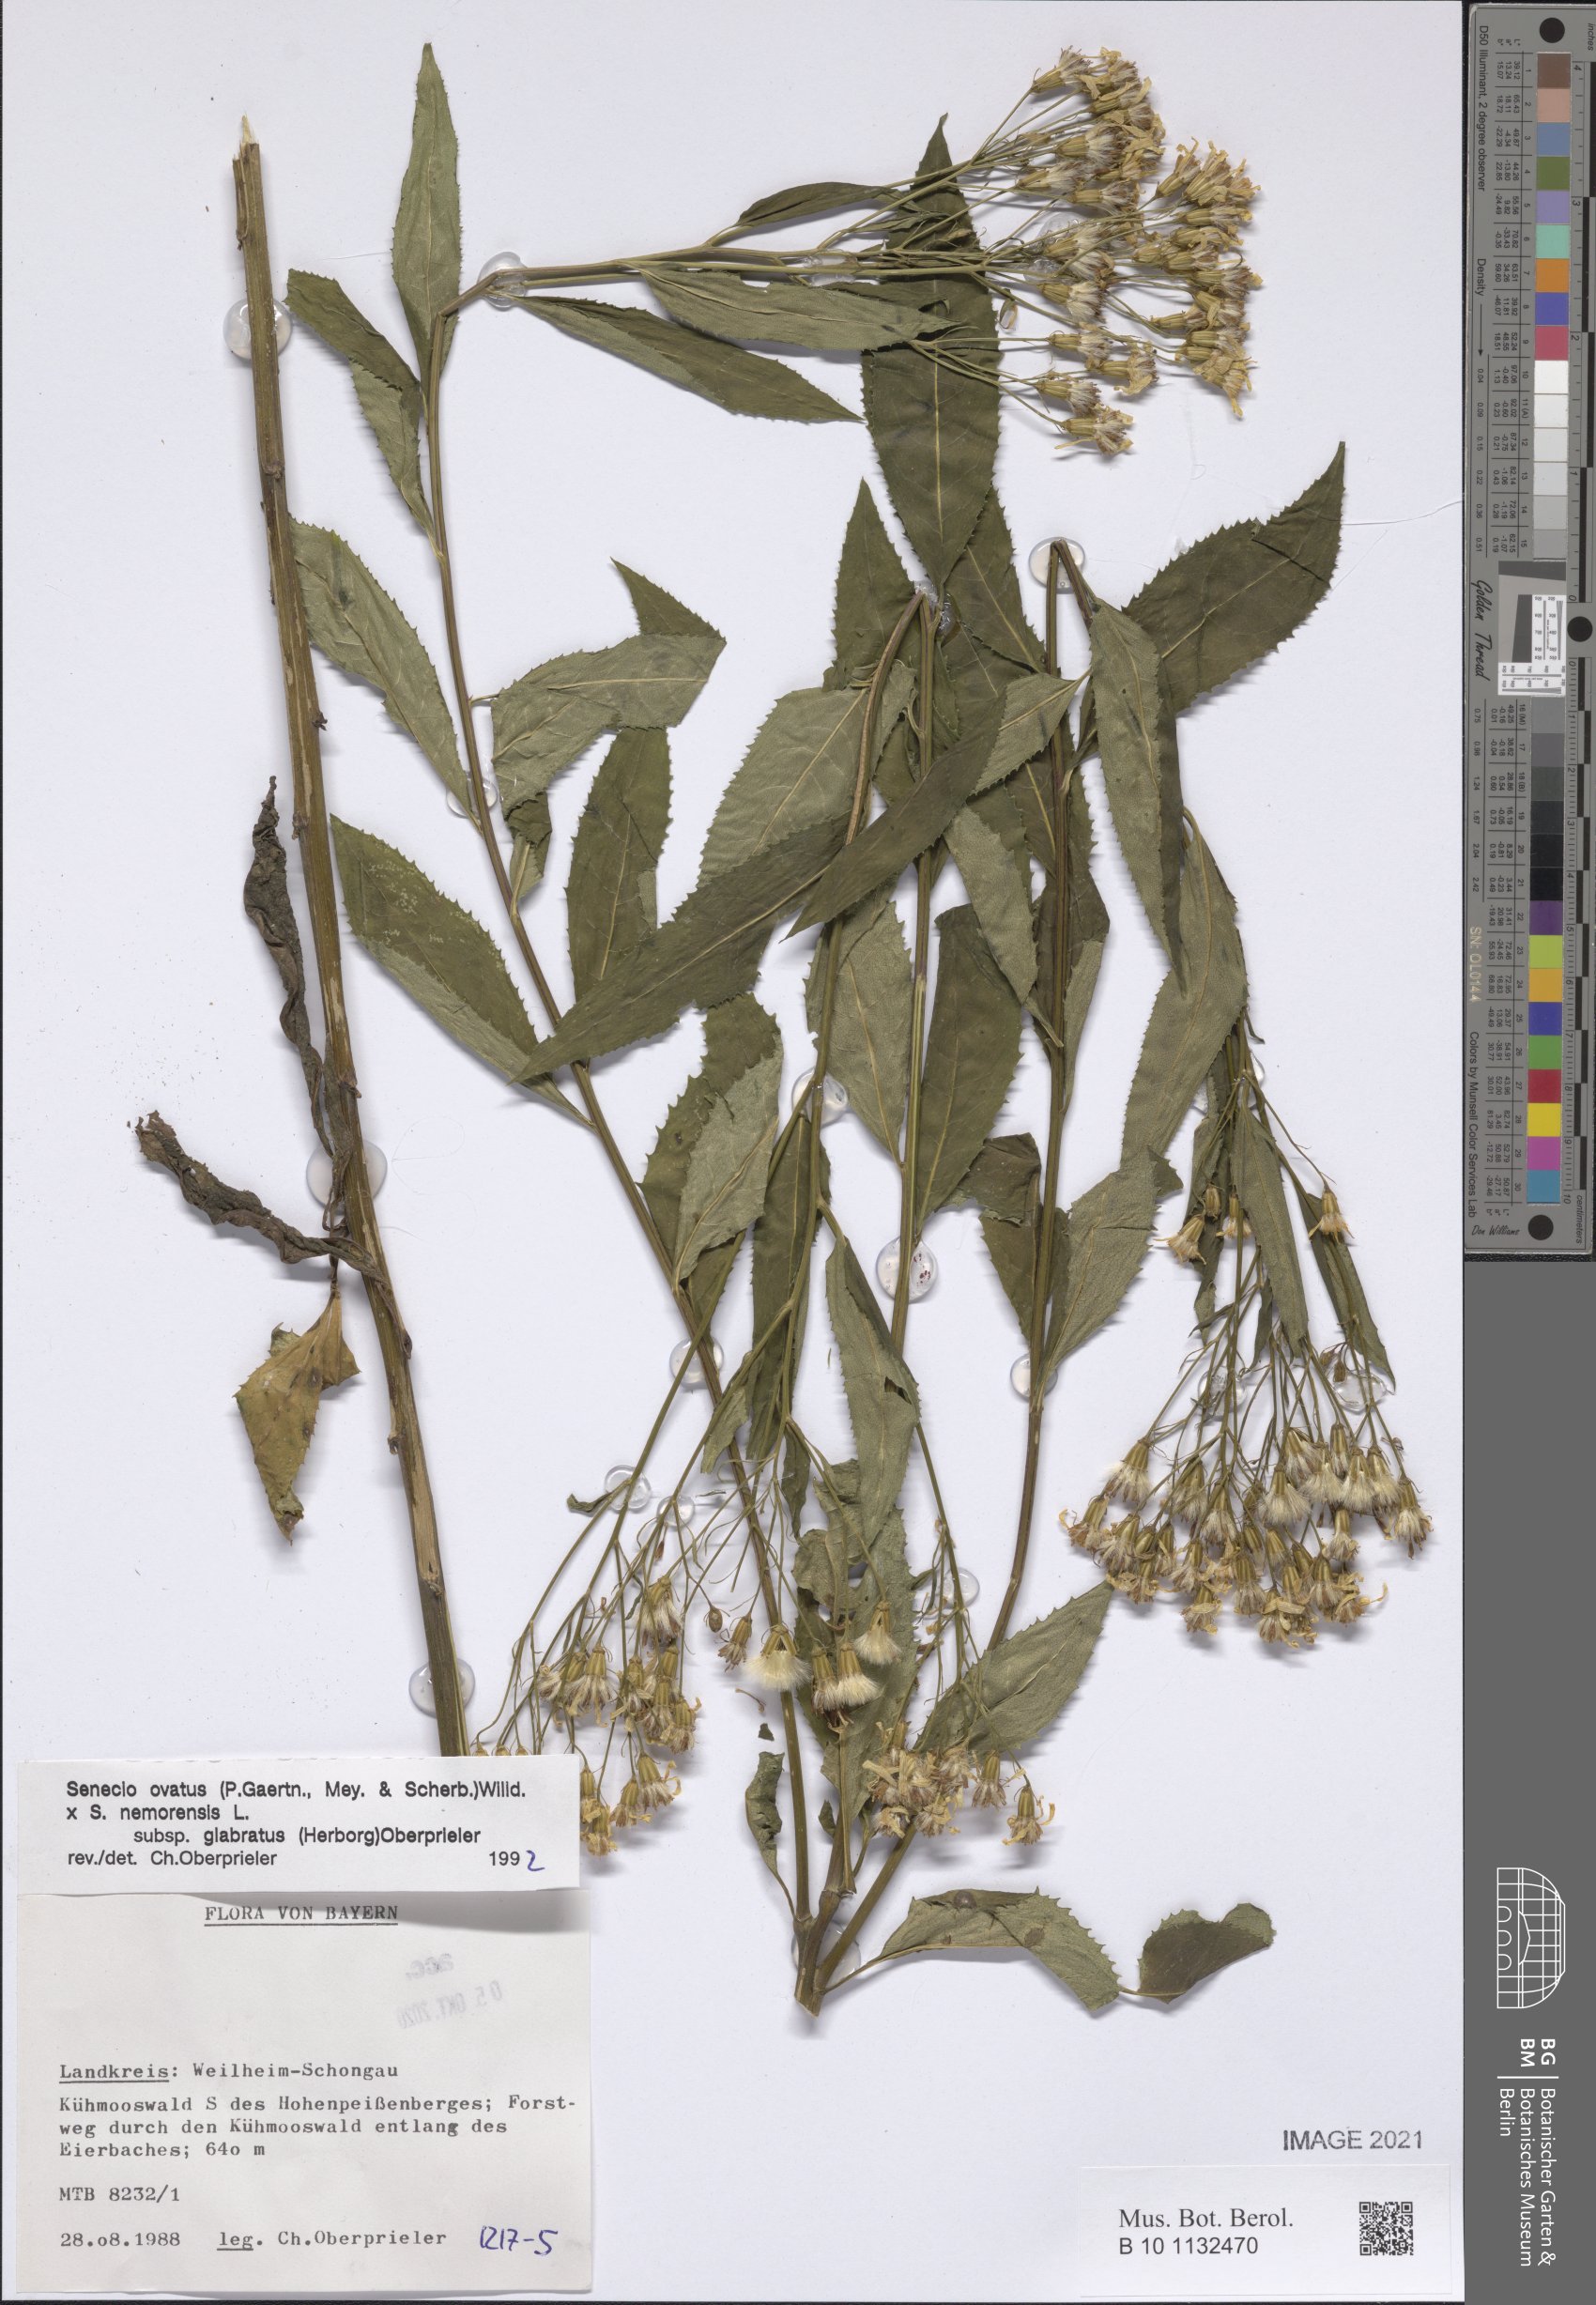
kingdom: Plantae
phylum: Tracheophyta
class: Magnoliopsida
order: Asterales
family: Asteraceae
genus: Senecio
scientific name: Senecio ovatus
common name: Wood ragwort
